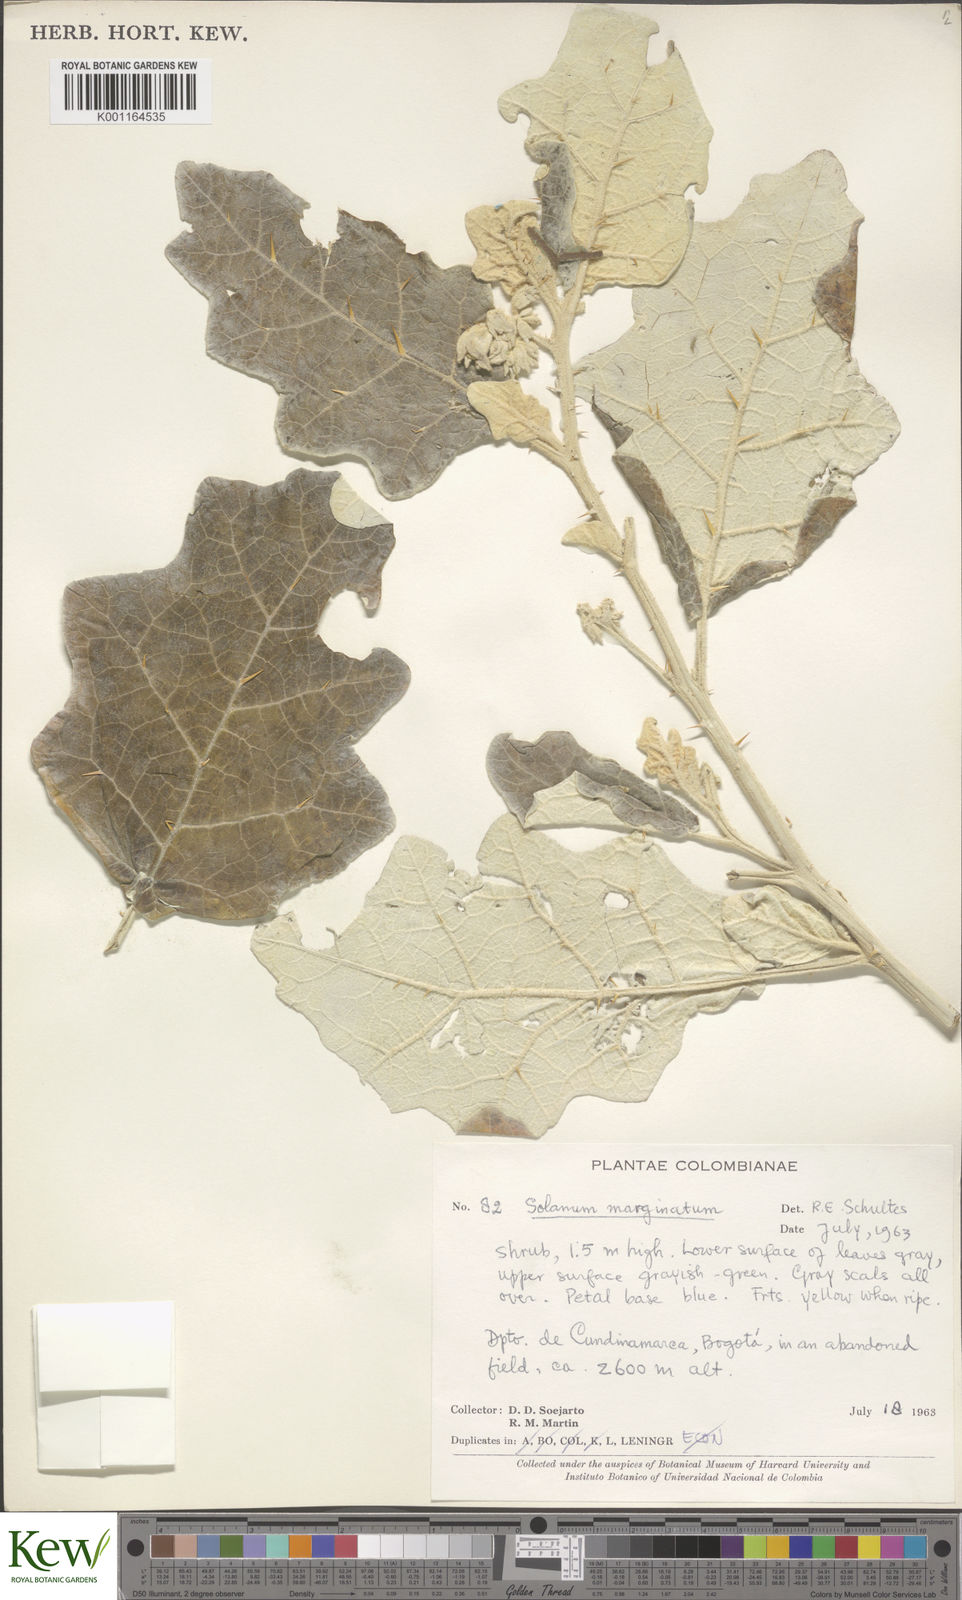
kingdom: Plantae
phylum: Tracheophyta
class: Magnoliopsida
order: Solanales
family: Solanaceae
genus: Solanum
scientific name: Solanum marginatum
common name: Purple african nightshade
